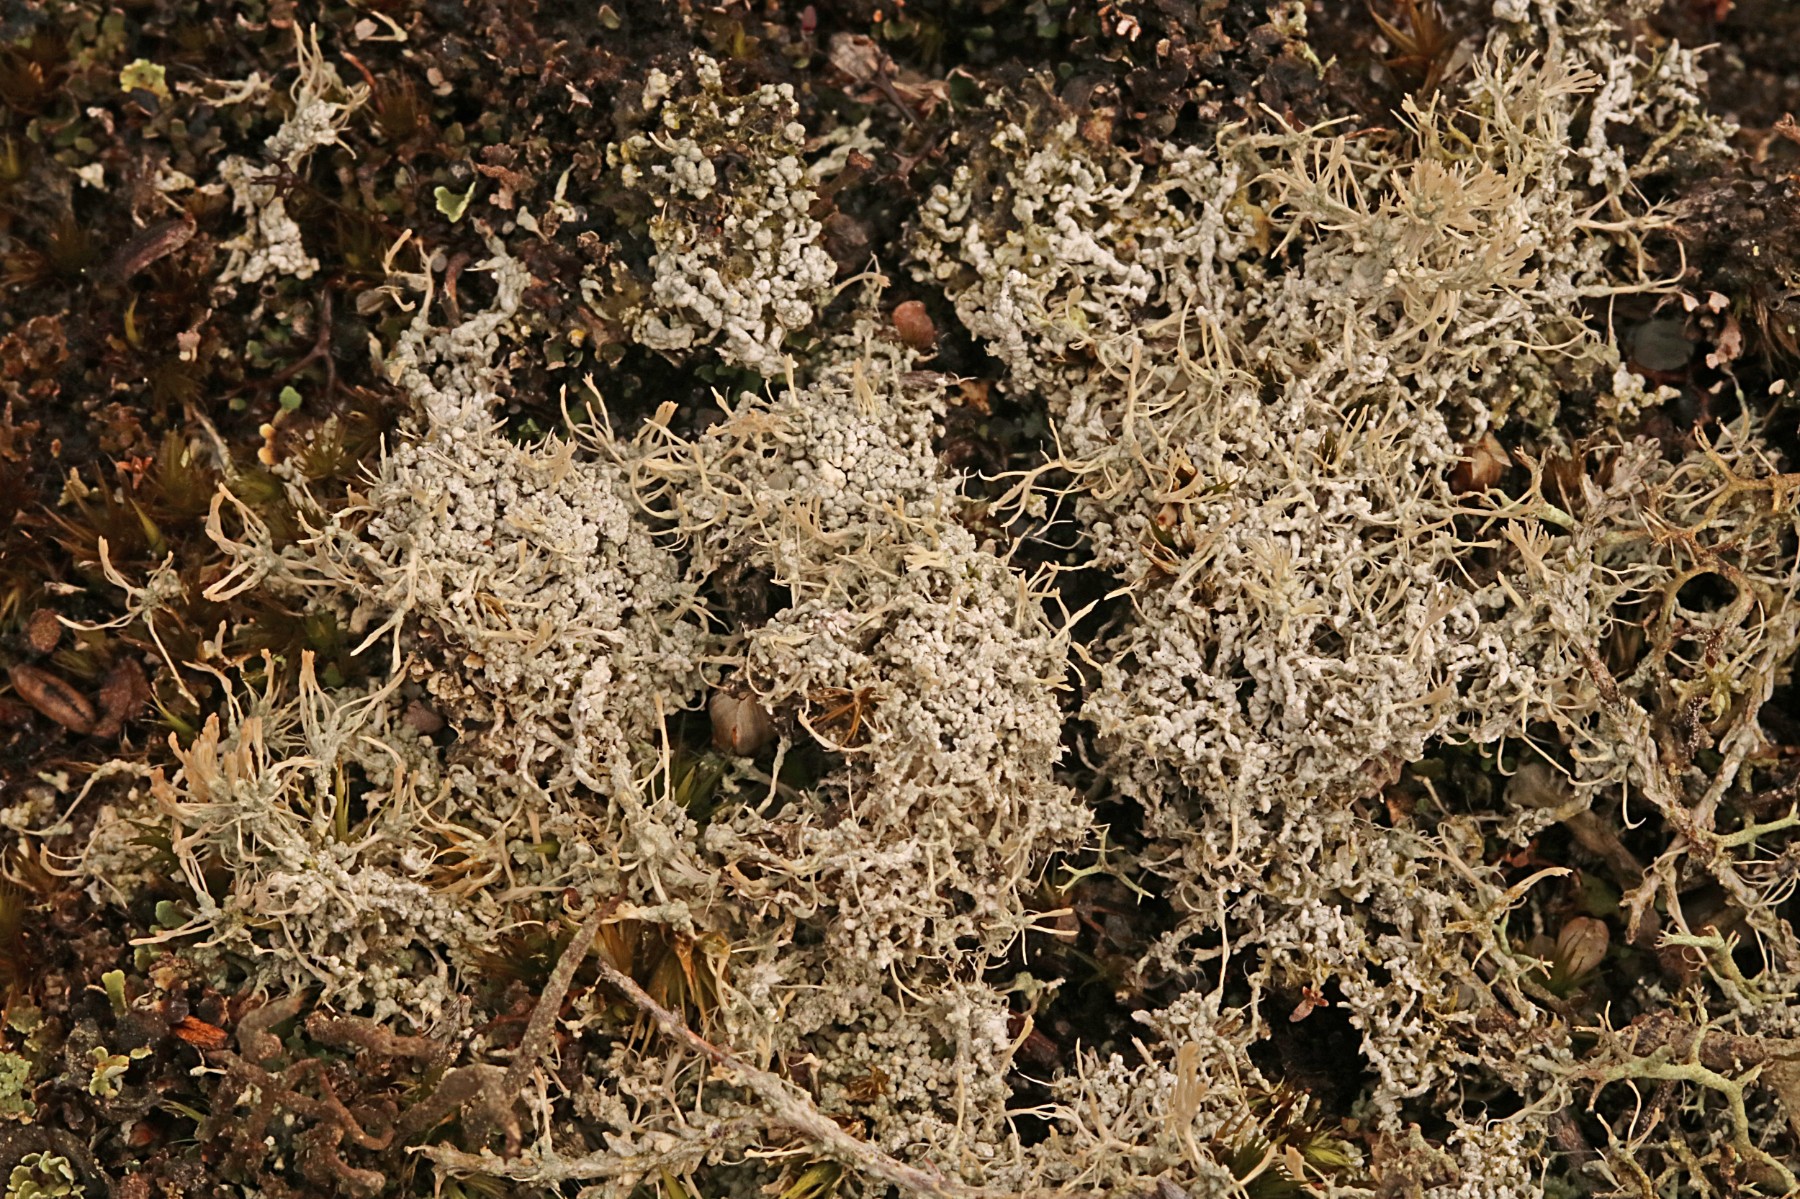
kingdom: Fungi
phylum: Ascomycota
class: Lecanoromycetes
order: Pertusariales
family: Ochrolechiaceae
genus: Ochrolechia
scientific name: Ochrolechia frigida
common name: fjeld-blegskivelav
